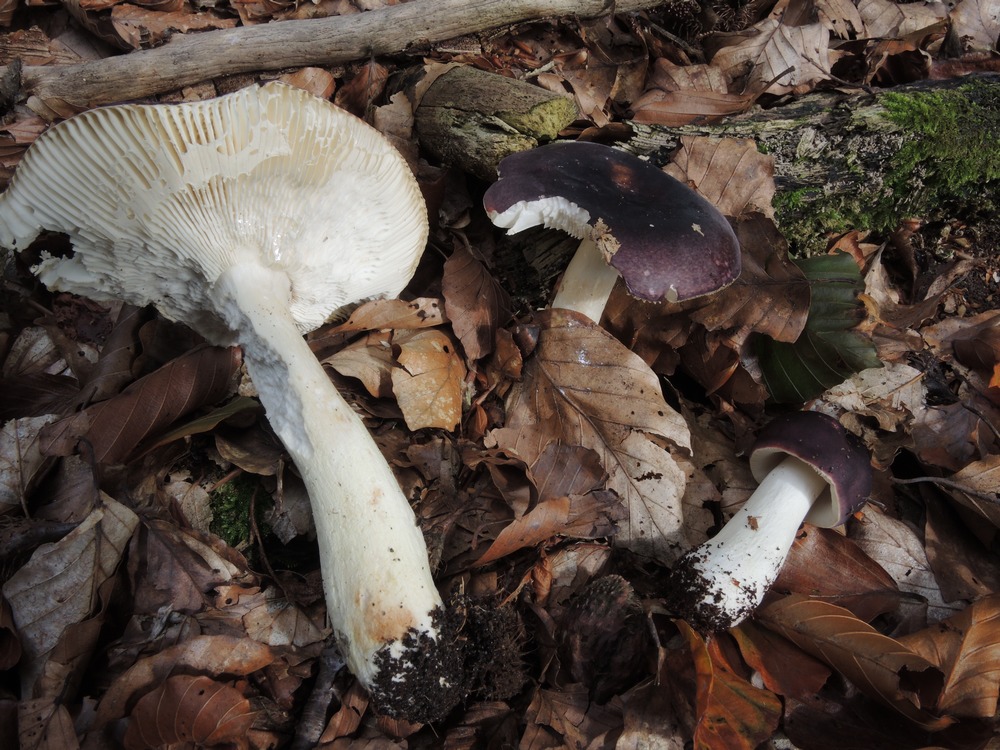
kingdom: Fungi
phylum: Basidiomycota
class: Agaricomycetes
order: Russulales
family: Russulaceae
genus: Russula
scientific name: Russula atropurpurea
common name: purpurbroget skørhat
